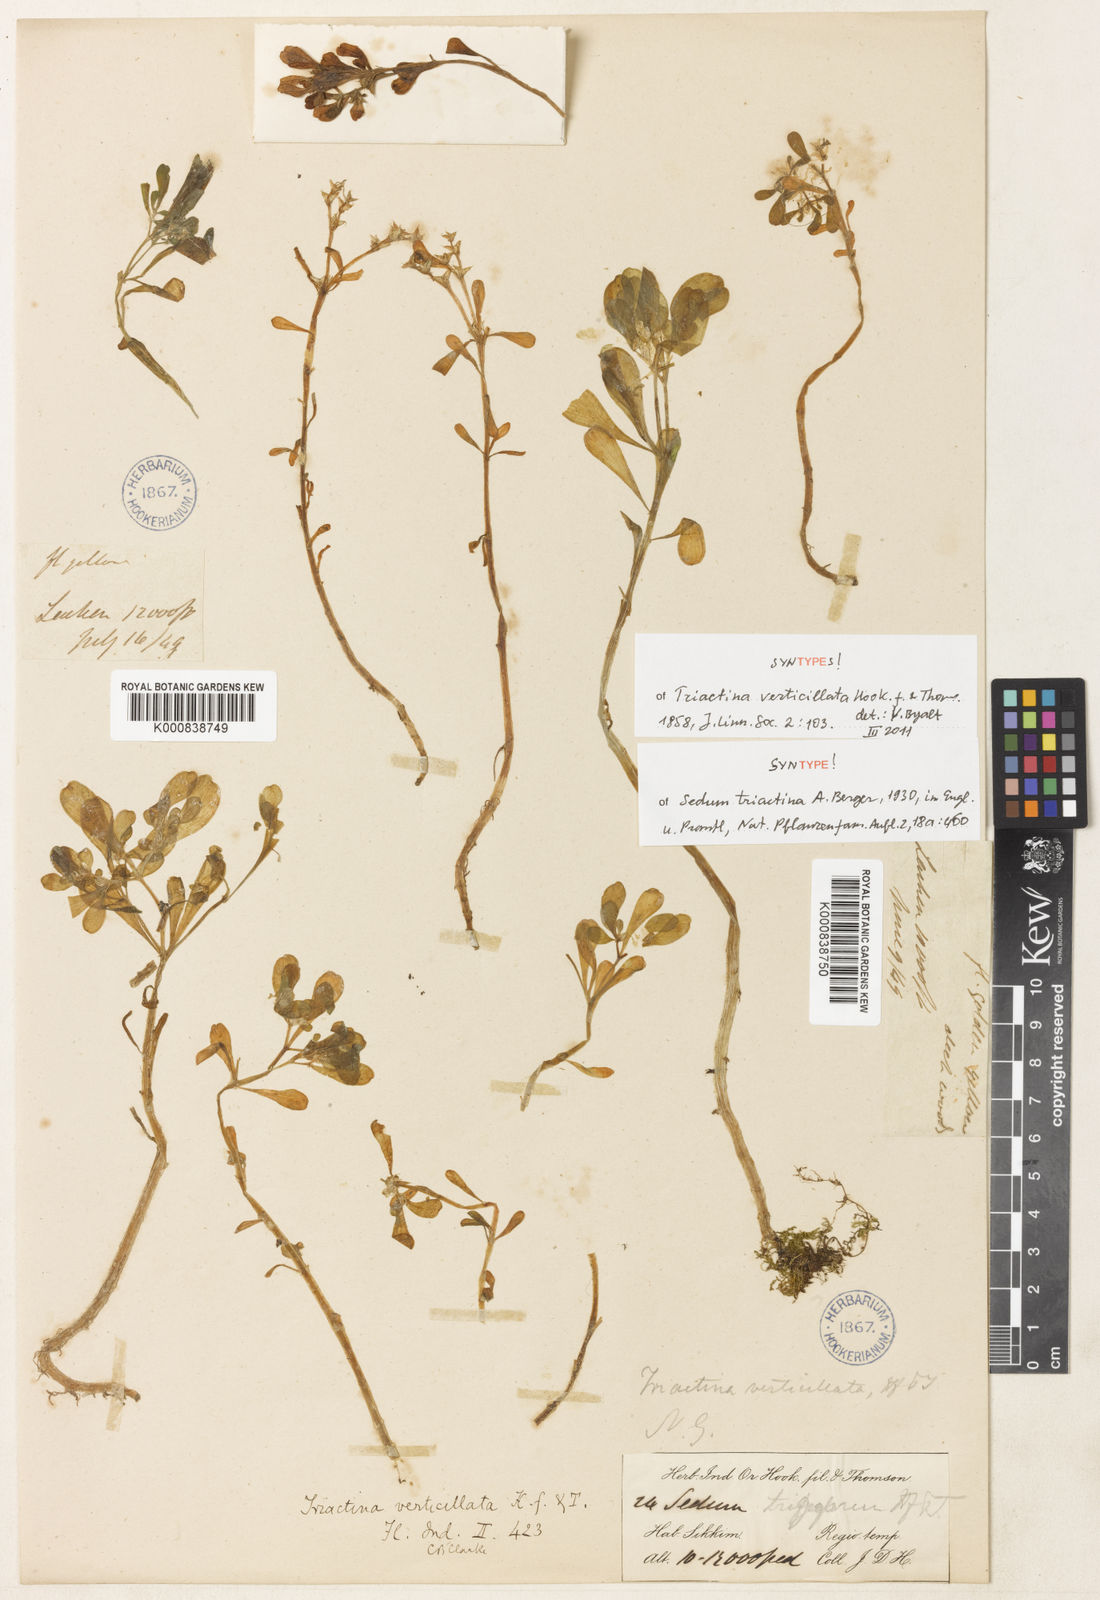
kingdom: Plantae
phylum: Tracheophyta
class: Magnoliopsida
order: Saxifragales
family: Crassulaceae
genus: Sedum
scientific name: Sedum triactina
